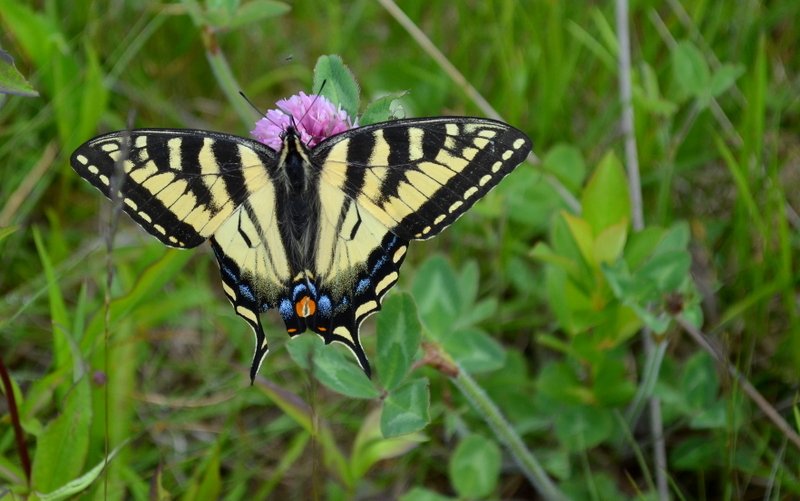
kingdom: Animalia
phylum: Arthropoda
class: Insecta
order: Lepidoptera
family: Papilionidae
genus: Pterourus
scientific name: Pterourus canadensis
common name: Canadian Tiger Swallowtail
